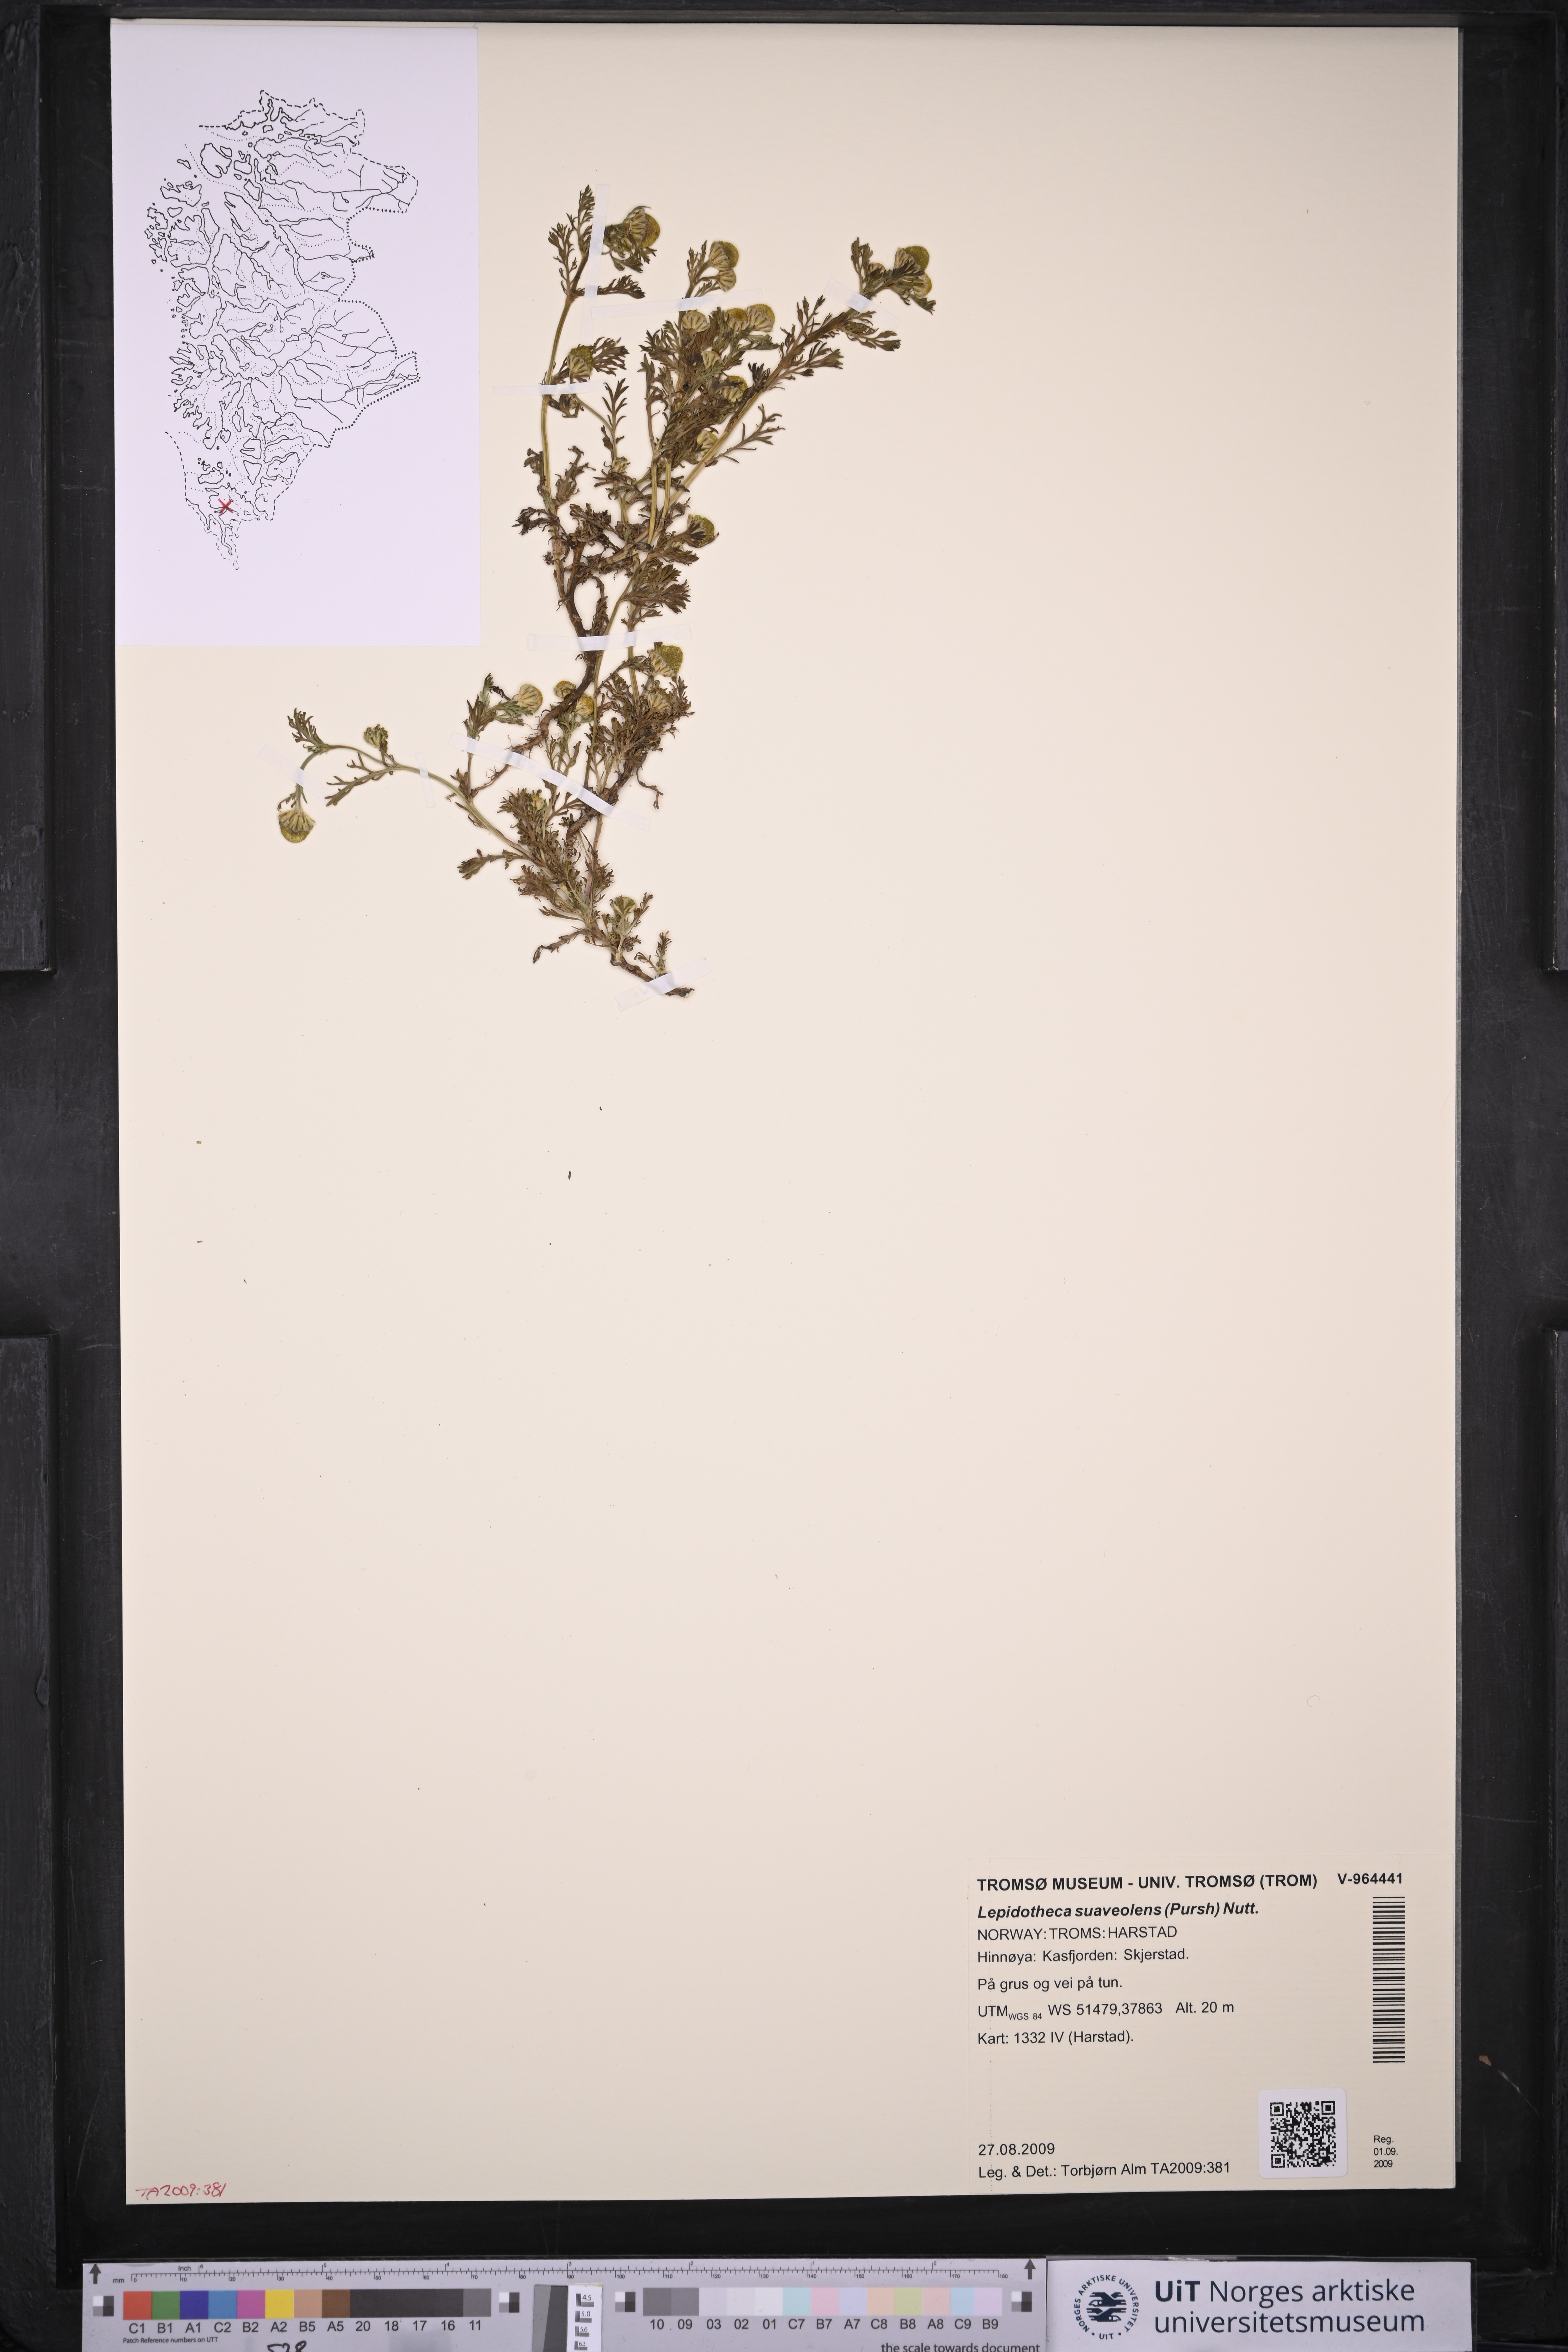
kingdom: Plantae
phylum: Tracheophyta
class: Magnoliopsida
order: Asterales
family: Asteraceae
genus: Matricaria
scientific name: Matricaria discoidea
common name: Disc mayweed
